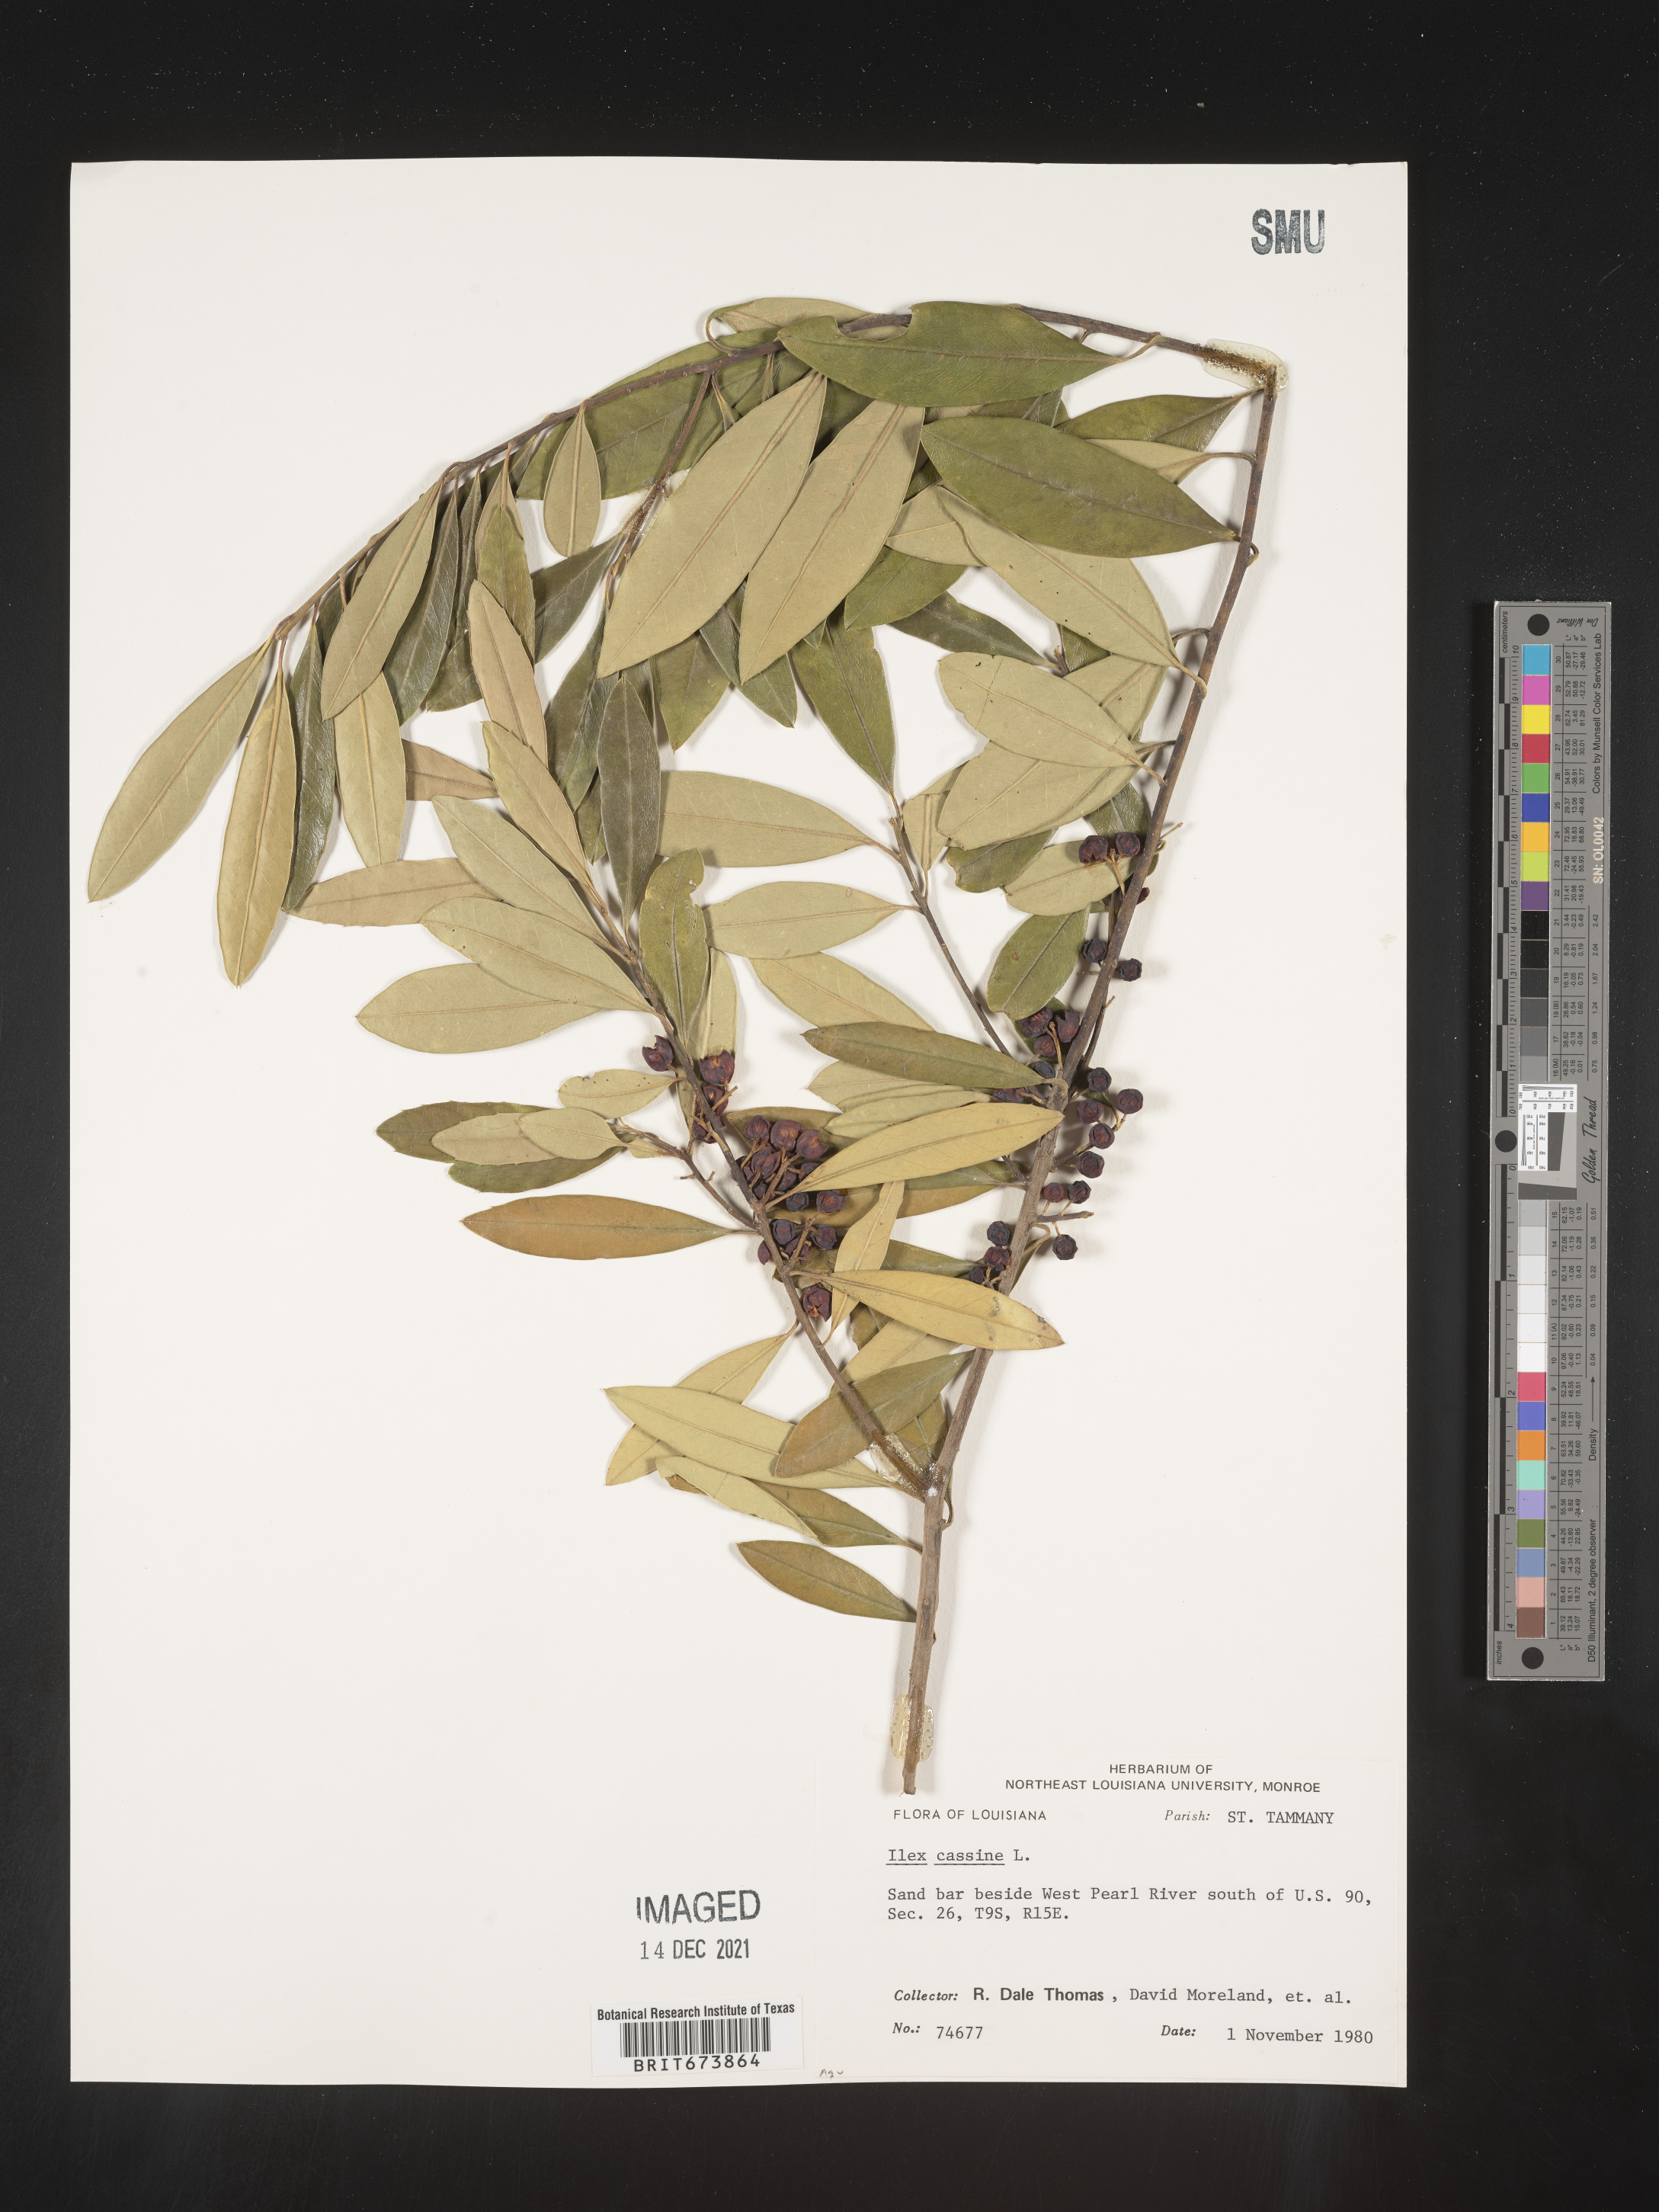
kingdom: Plantae
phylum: Tracheophyta
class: Magnoliopsida
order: Aquifoliales
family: Aquifoliaceae
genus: Ilex
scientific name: Ilex cassine
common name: Dahoon
